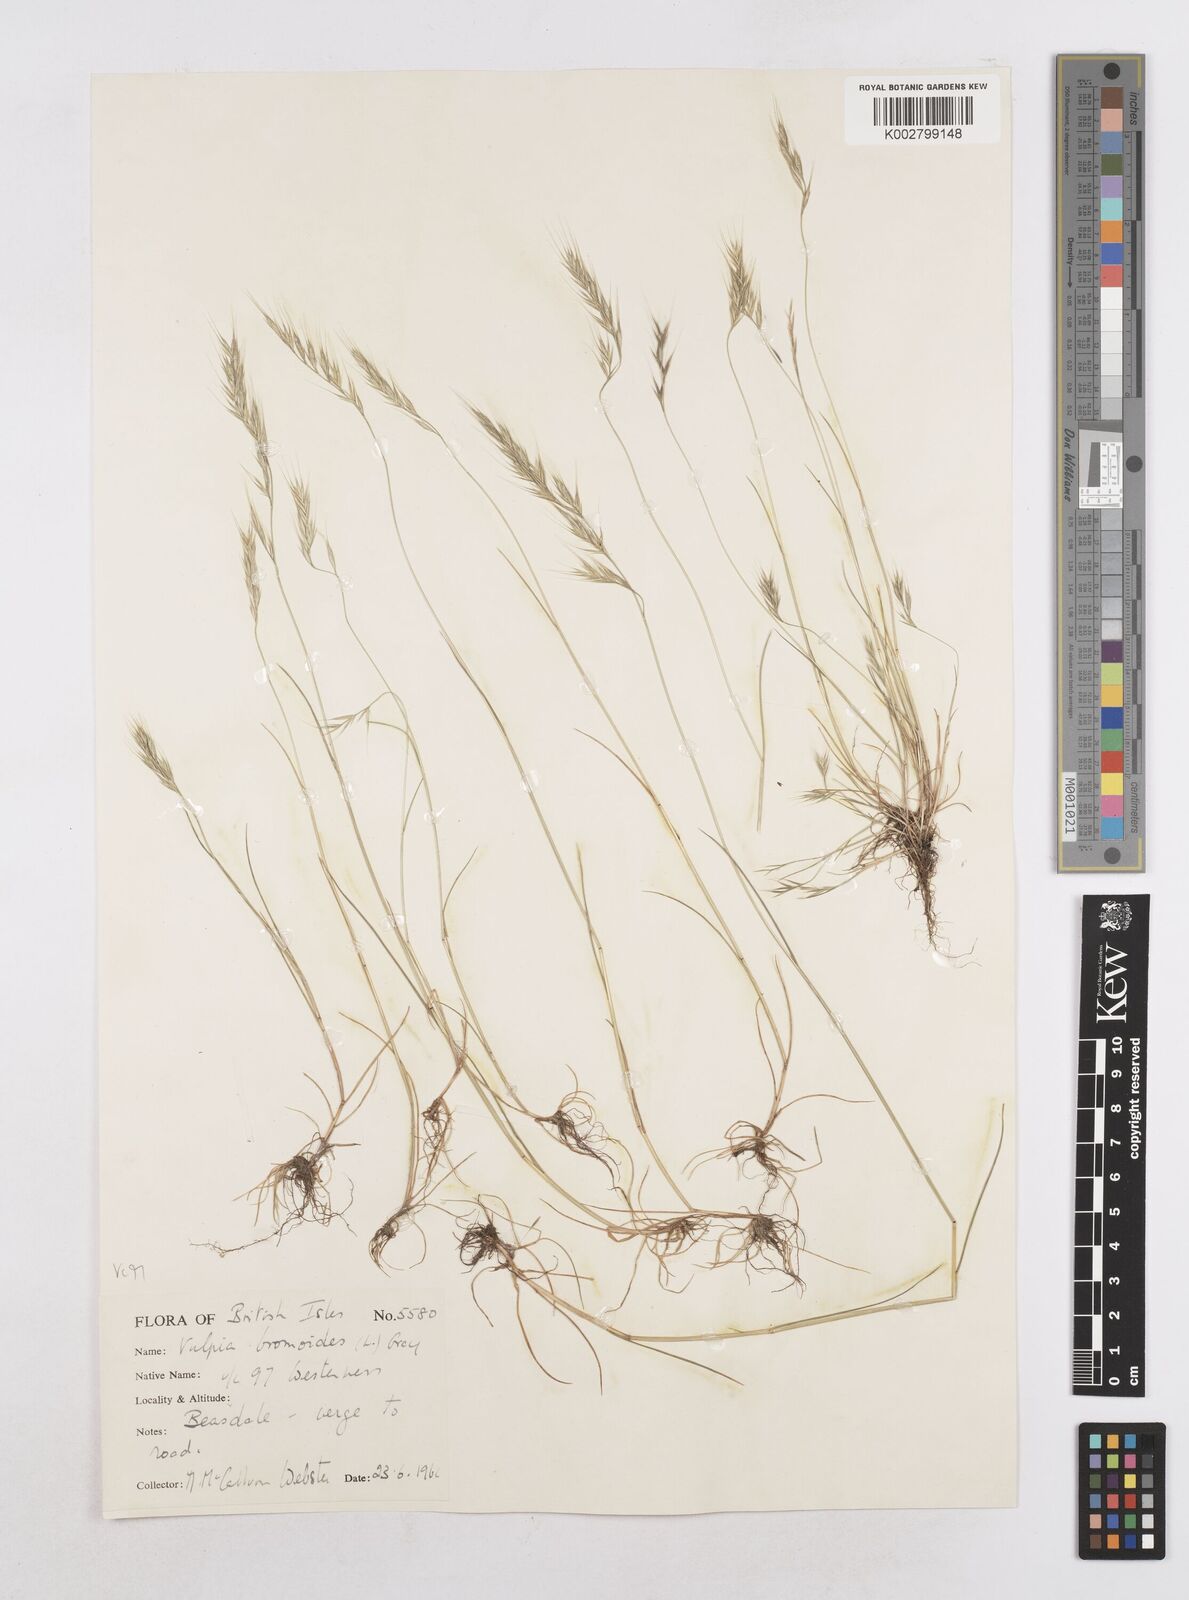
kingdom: Plantae
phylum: Tracheophyta
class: Liliopsida
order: Poales
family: Poaceae
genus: Festuca
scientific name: Festuca bromoides
